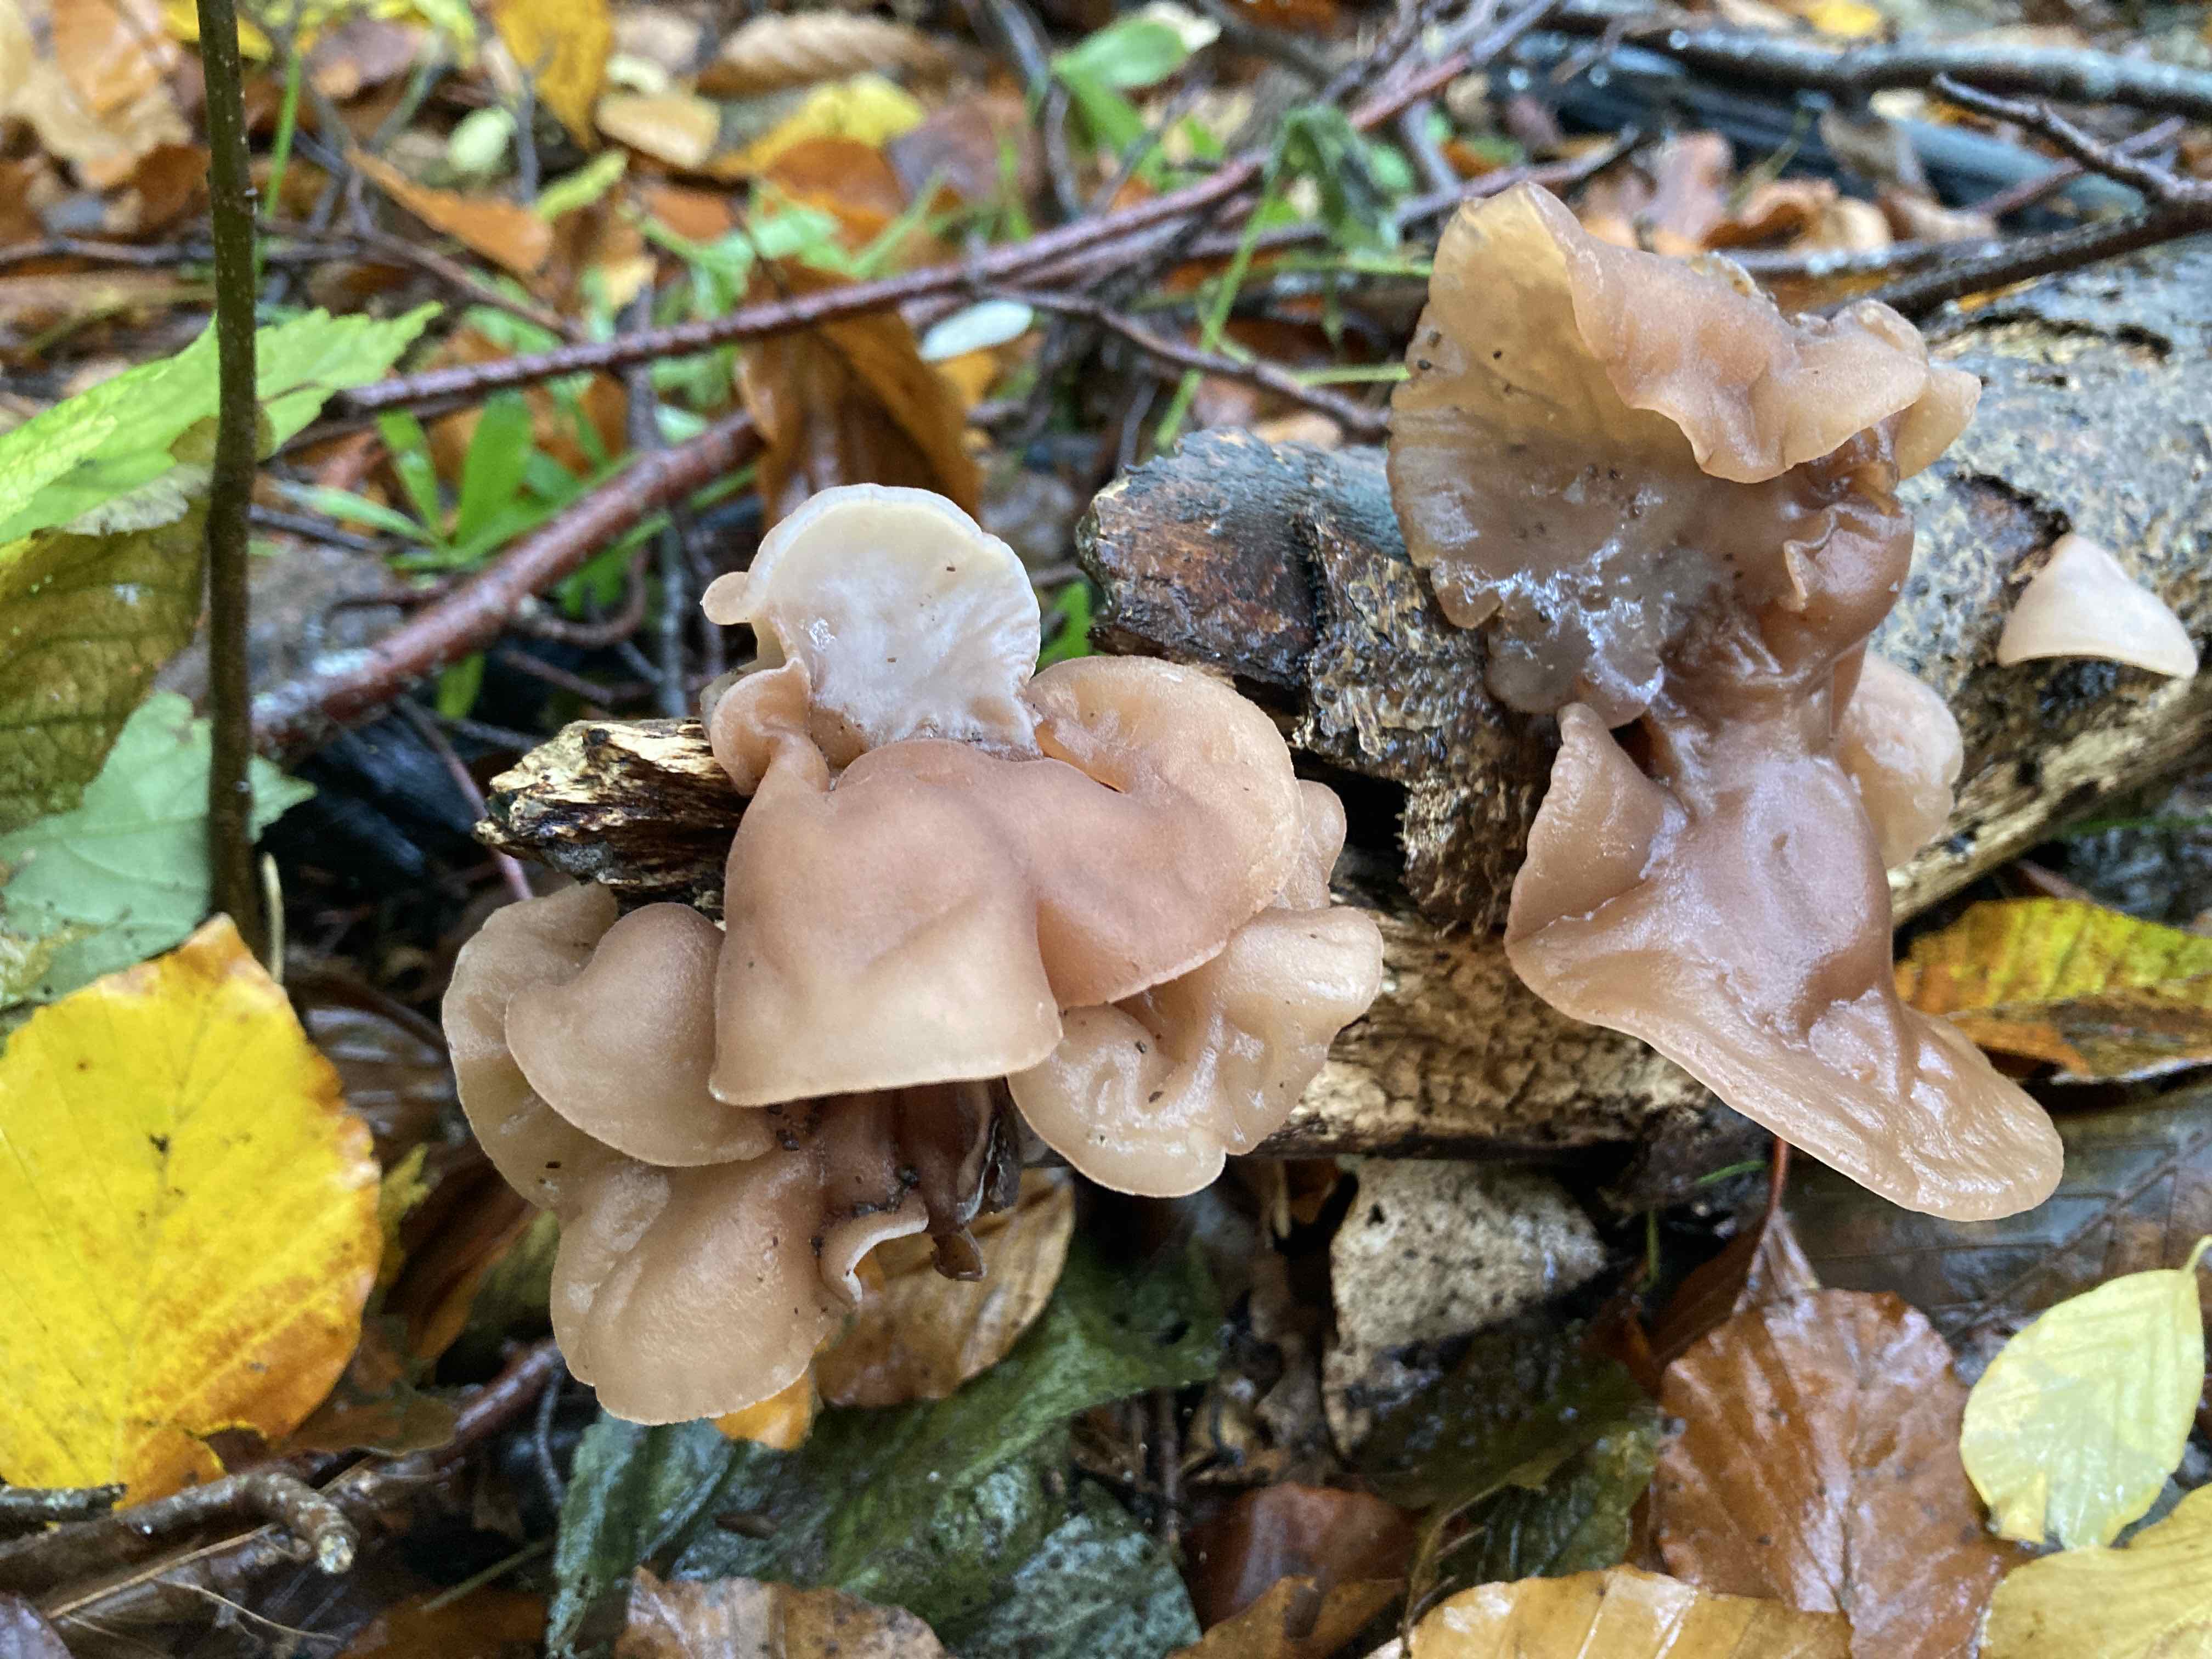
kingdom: Fungi
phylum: Basidiomycota
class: Agaricomycetes
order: Auriculariales
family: Auriculariaceae
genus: Auricularia
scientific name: Auricularia auricula-judae
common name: almindelig judasøre
